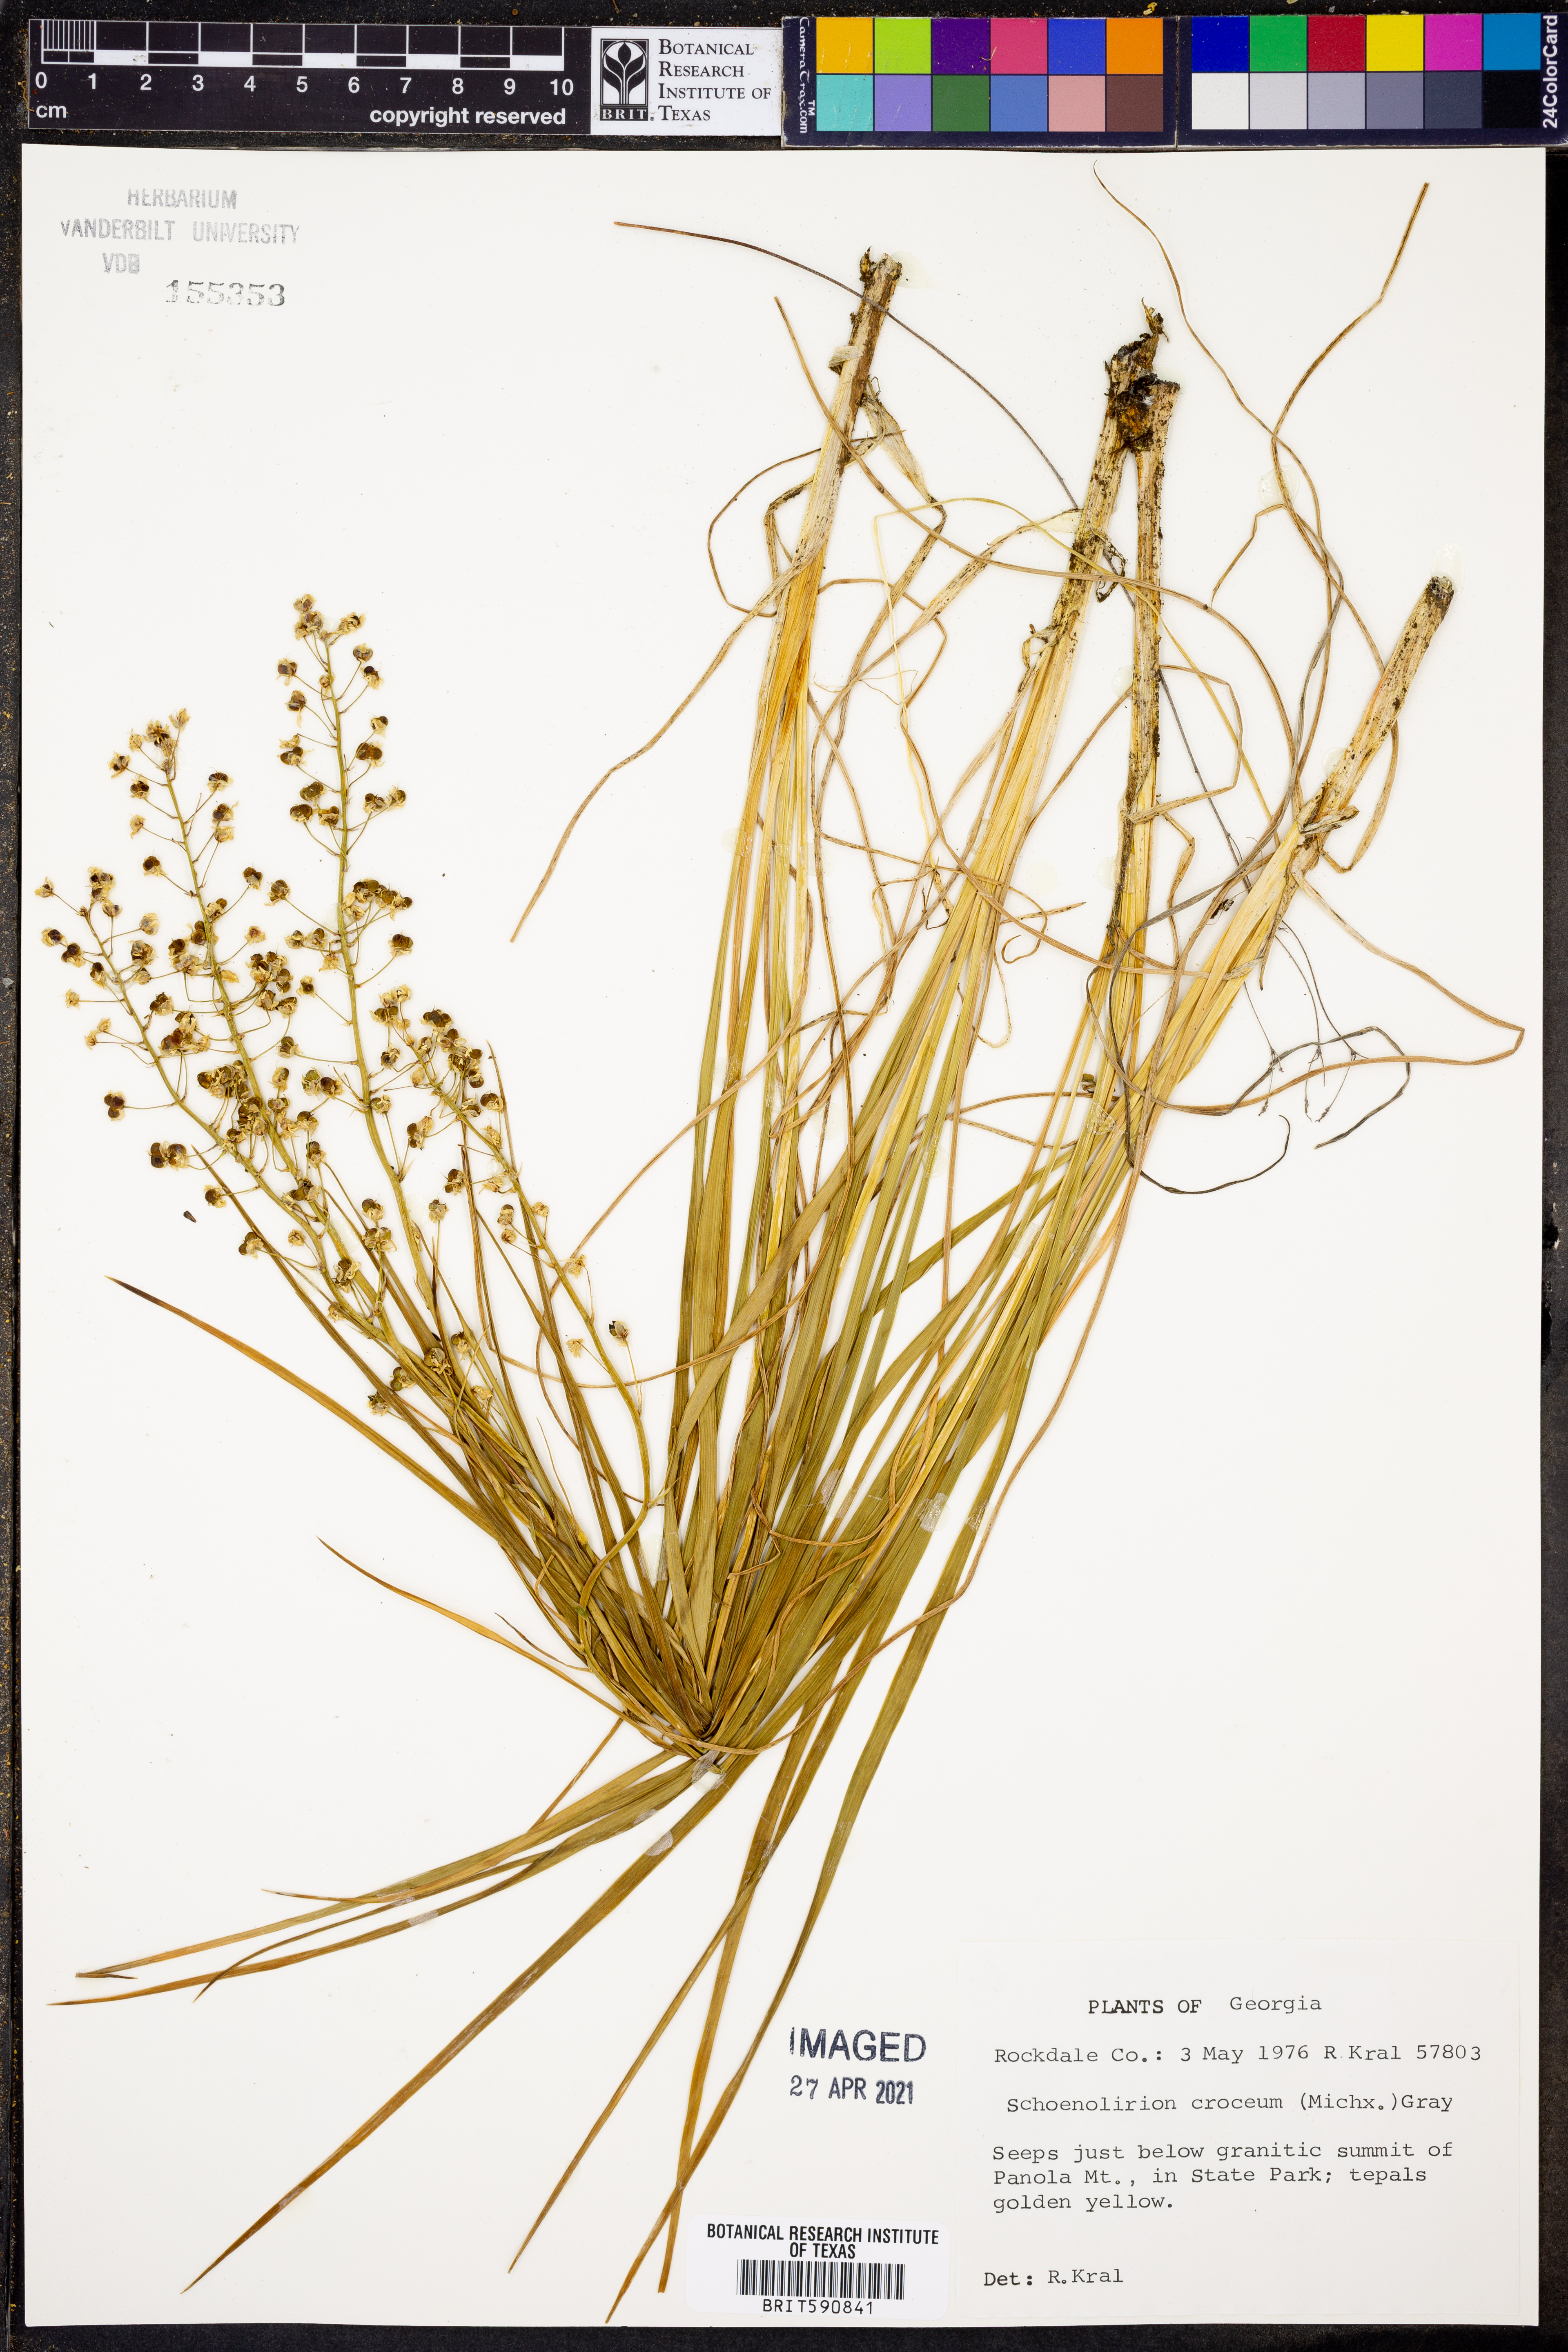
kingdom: Plantae
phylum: Tracheophyta
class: Liliopsida
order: Asparagales
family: Asparagaceae
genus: Schoenolirion
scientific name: Schoenolirion croceum
